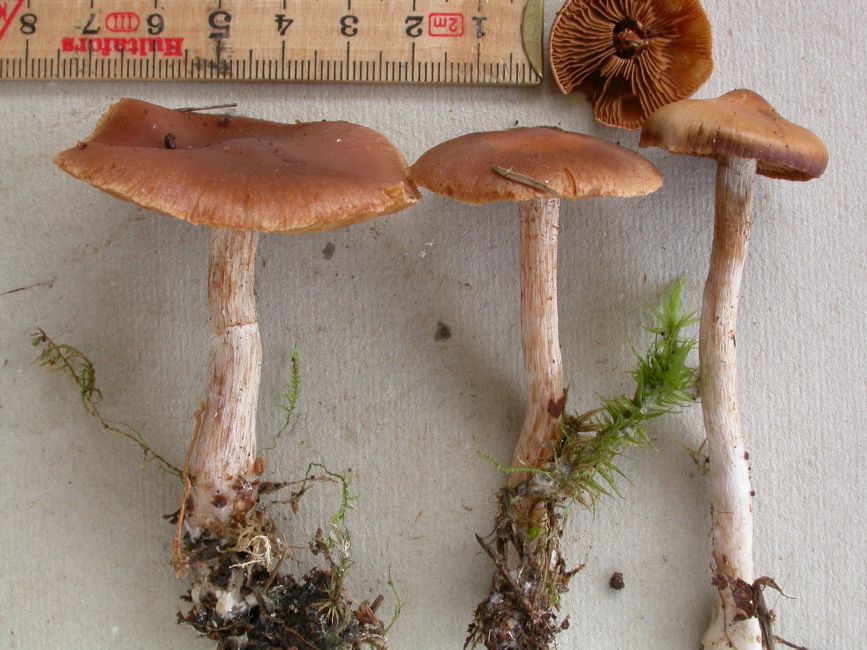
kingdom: Fungi
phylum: Basidiomycota
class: Agaricomycetes
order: Agaricales
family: Cortinariaceae
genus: Cortinarius
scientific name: Cortinarius kauffmanianus
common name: plantage-slørhat
